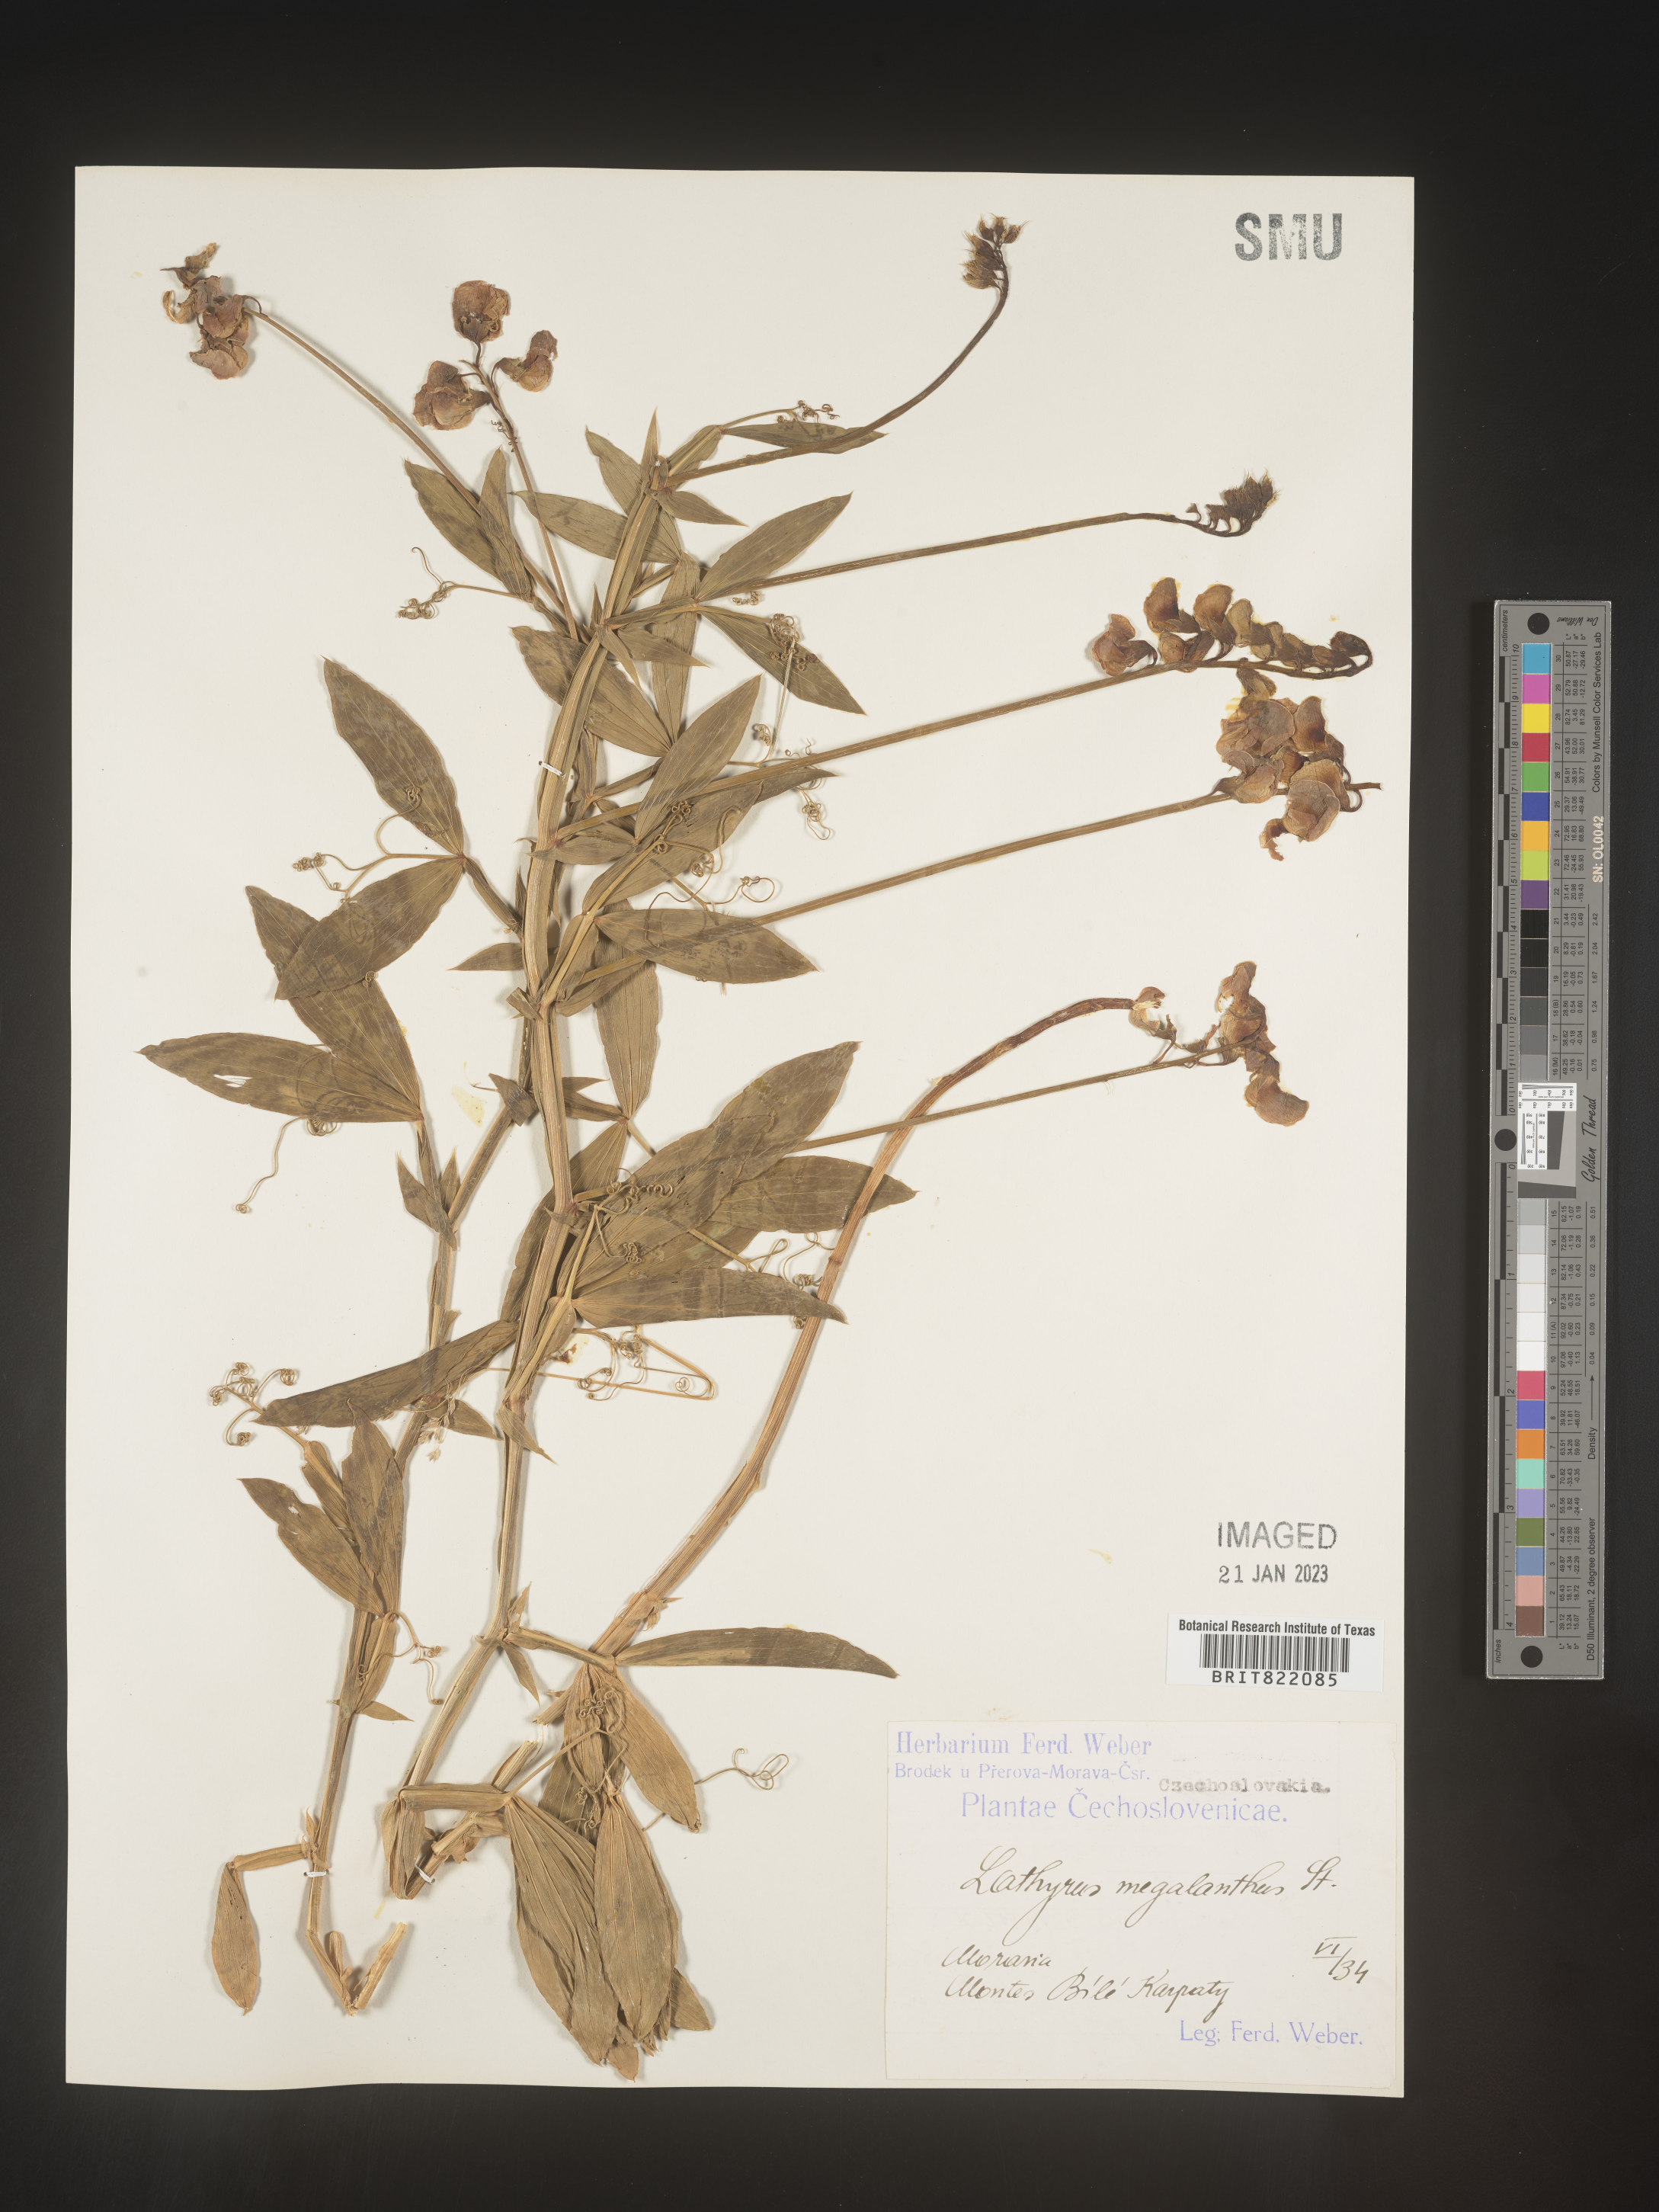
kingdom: Plantae
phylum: Tracheophyta
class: Magnoliopsida
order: Fabales
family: Fabaceae
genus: Lathyrus
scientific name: Lathyrus
